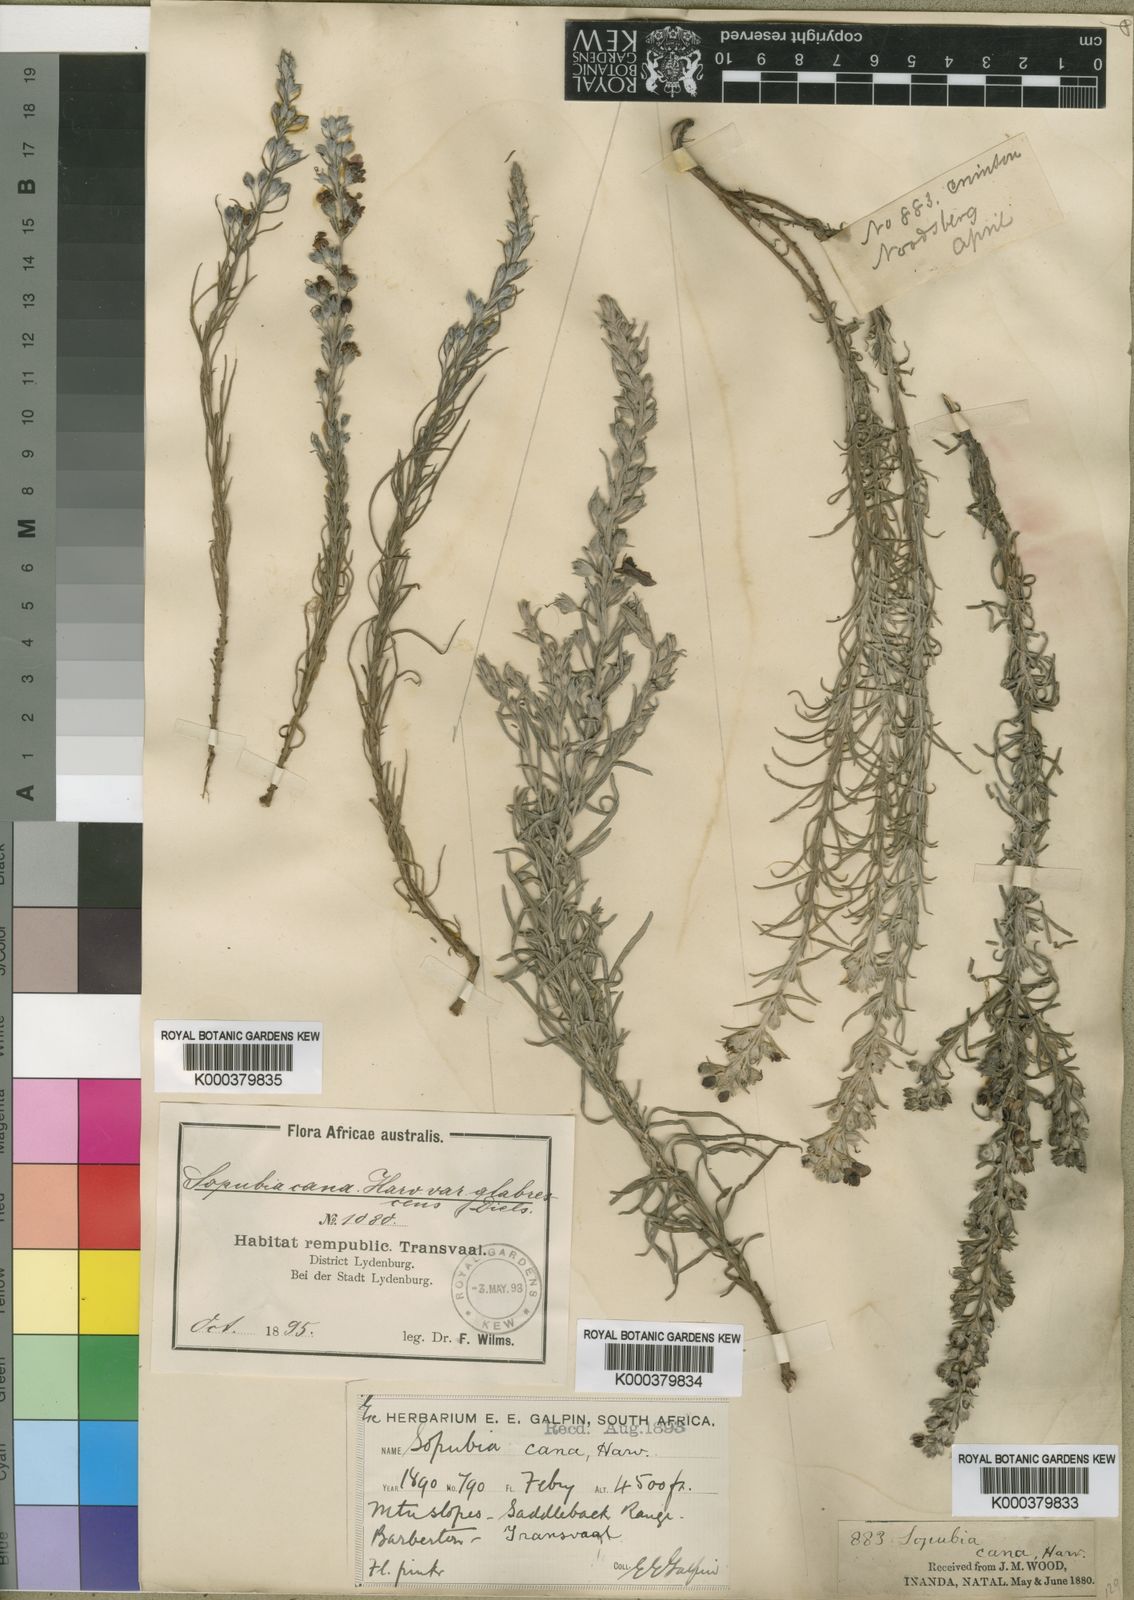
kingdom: Plantae
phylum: Tracheophyta
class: Magnoliopsida
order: Lamiales
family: Orobanchaceae
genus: Sopubia
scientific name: Sopubia cana
